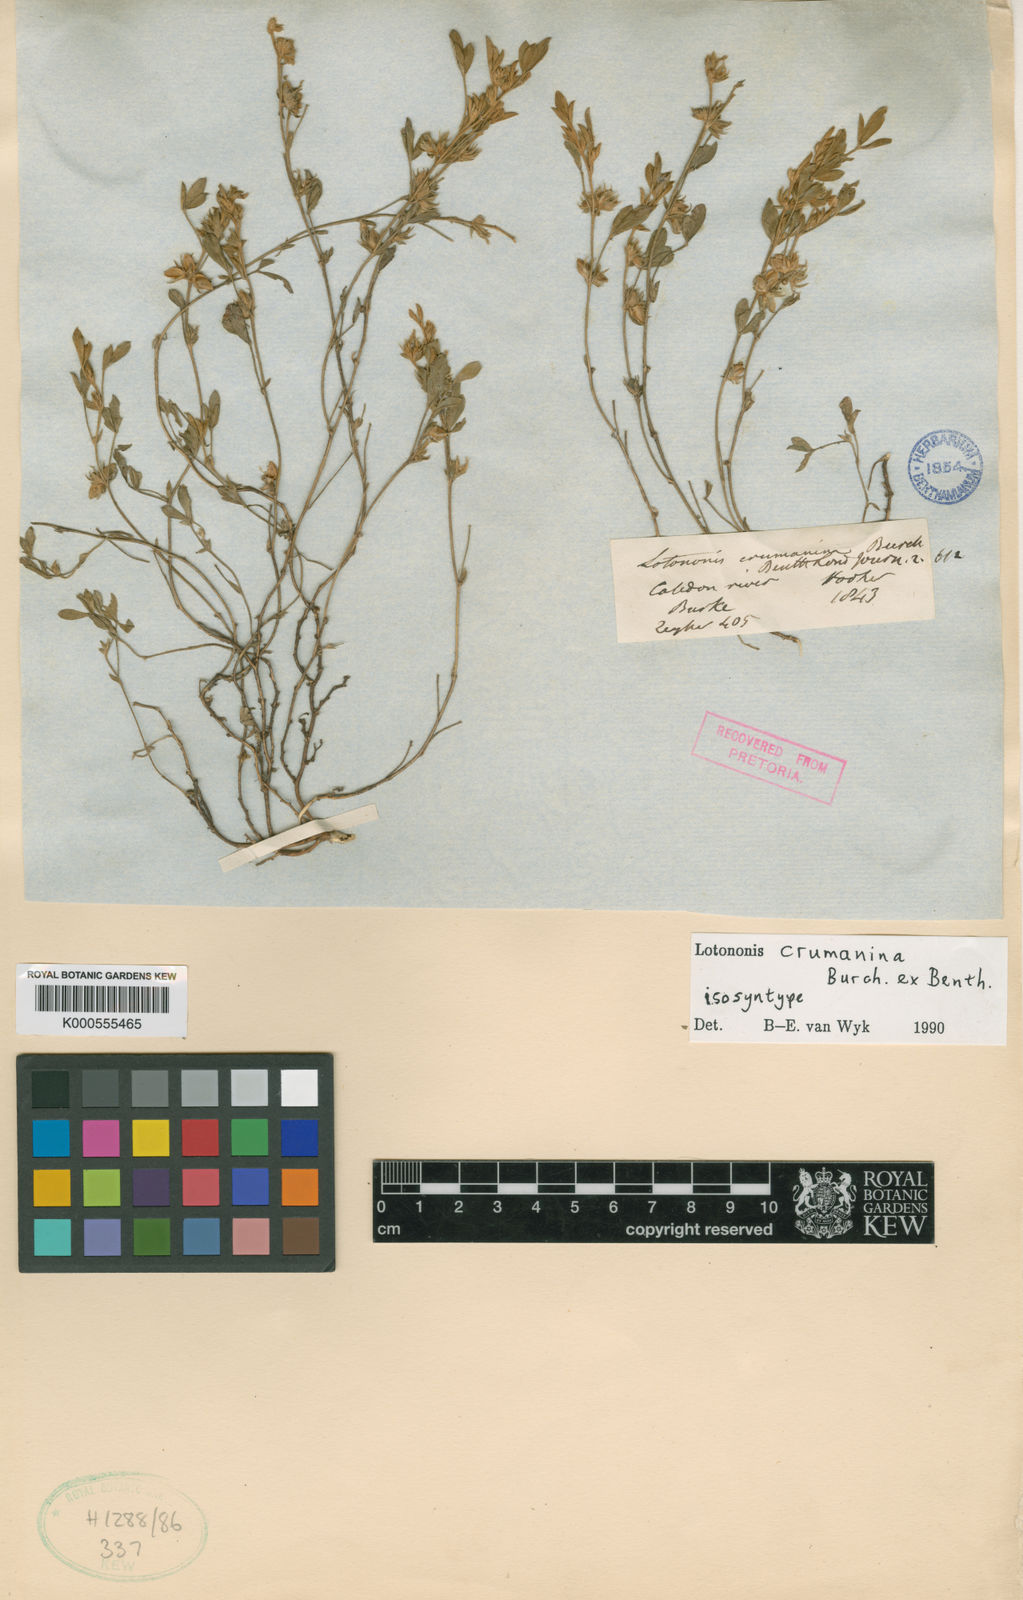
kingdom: Plantae
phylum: Tracheophyta
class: Magnoliopsida
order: Fabales
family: Fabaceae
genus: Lotononis
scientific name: Lotononis
